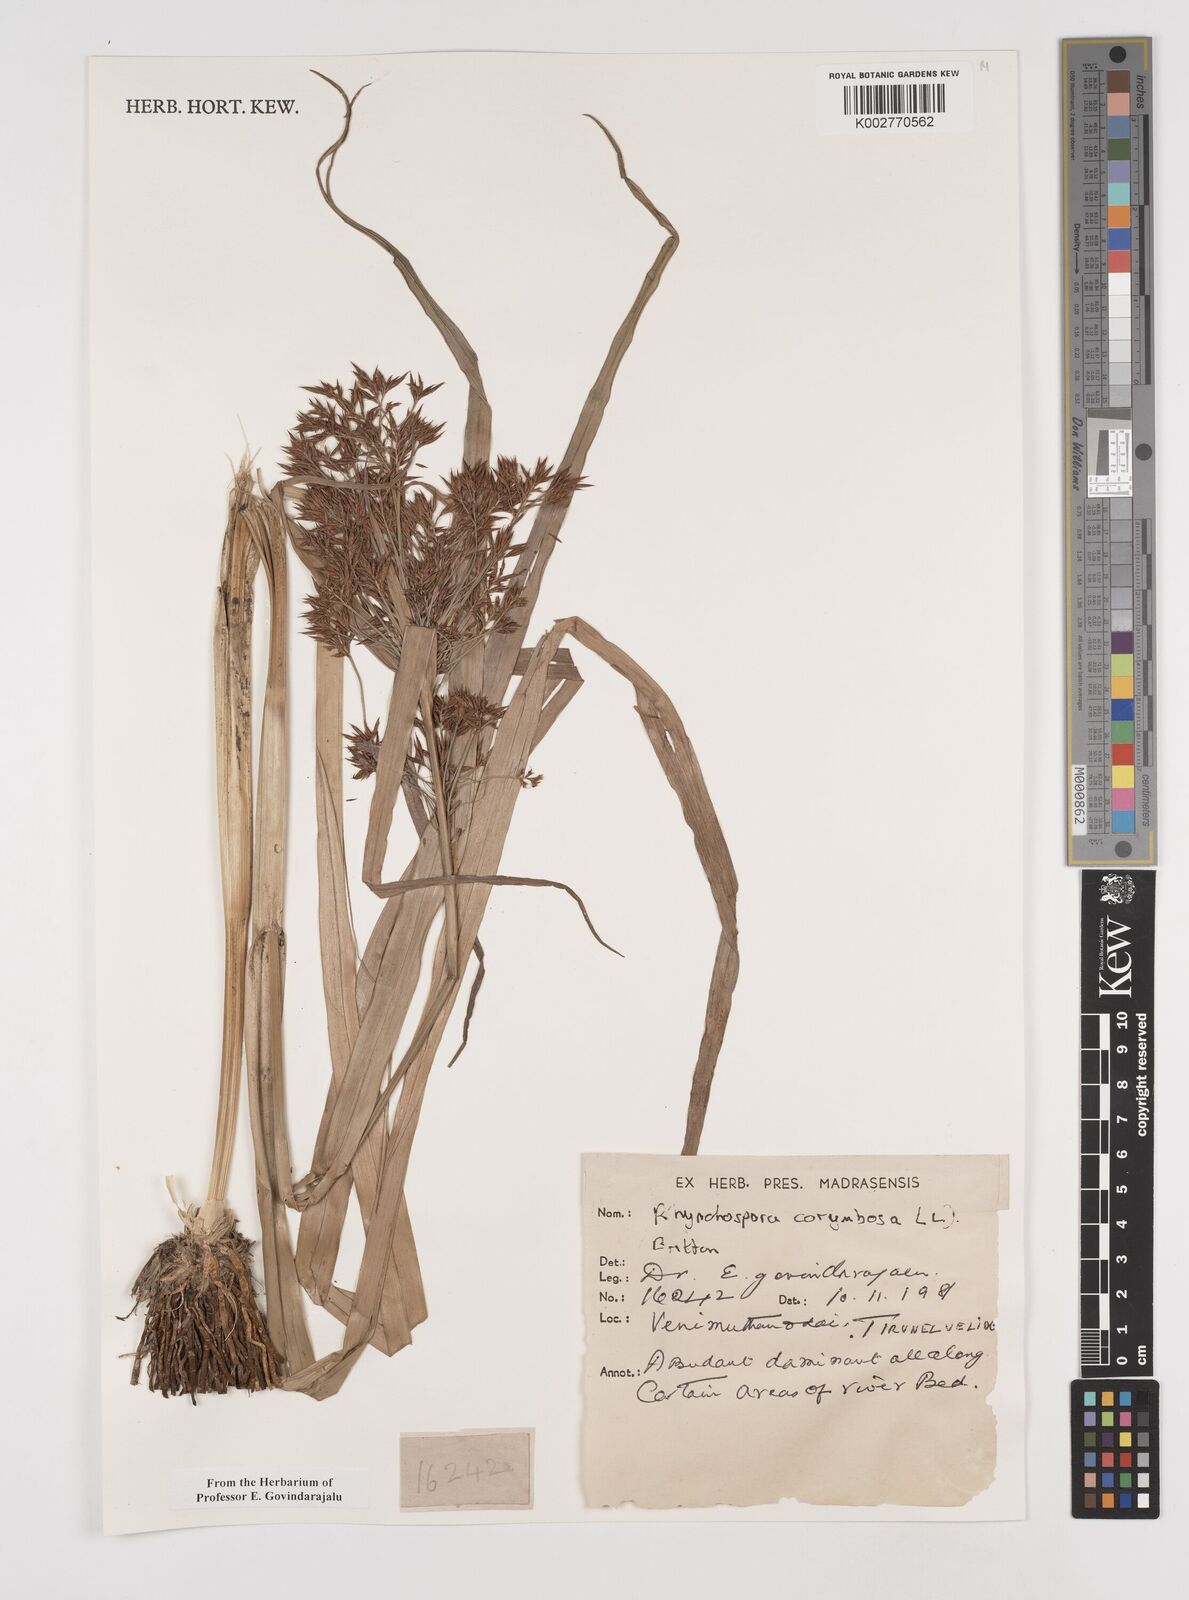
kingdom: Plantae
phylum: Tracheophyta
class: Liliopsida
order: Poales
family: Cyperaceae
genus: Rhynchospora
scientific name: Rhynchospora corymbosa
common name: Golden beak sedge
